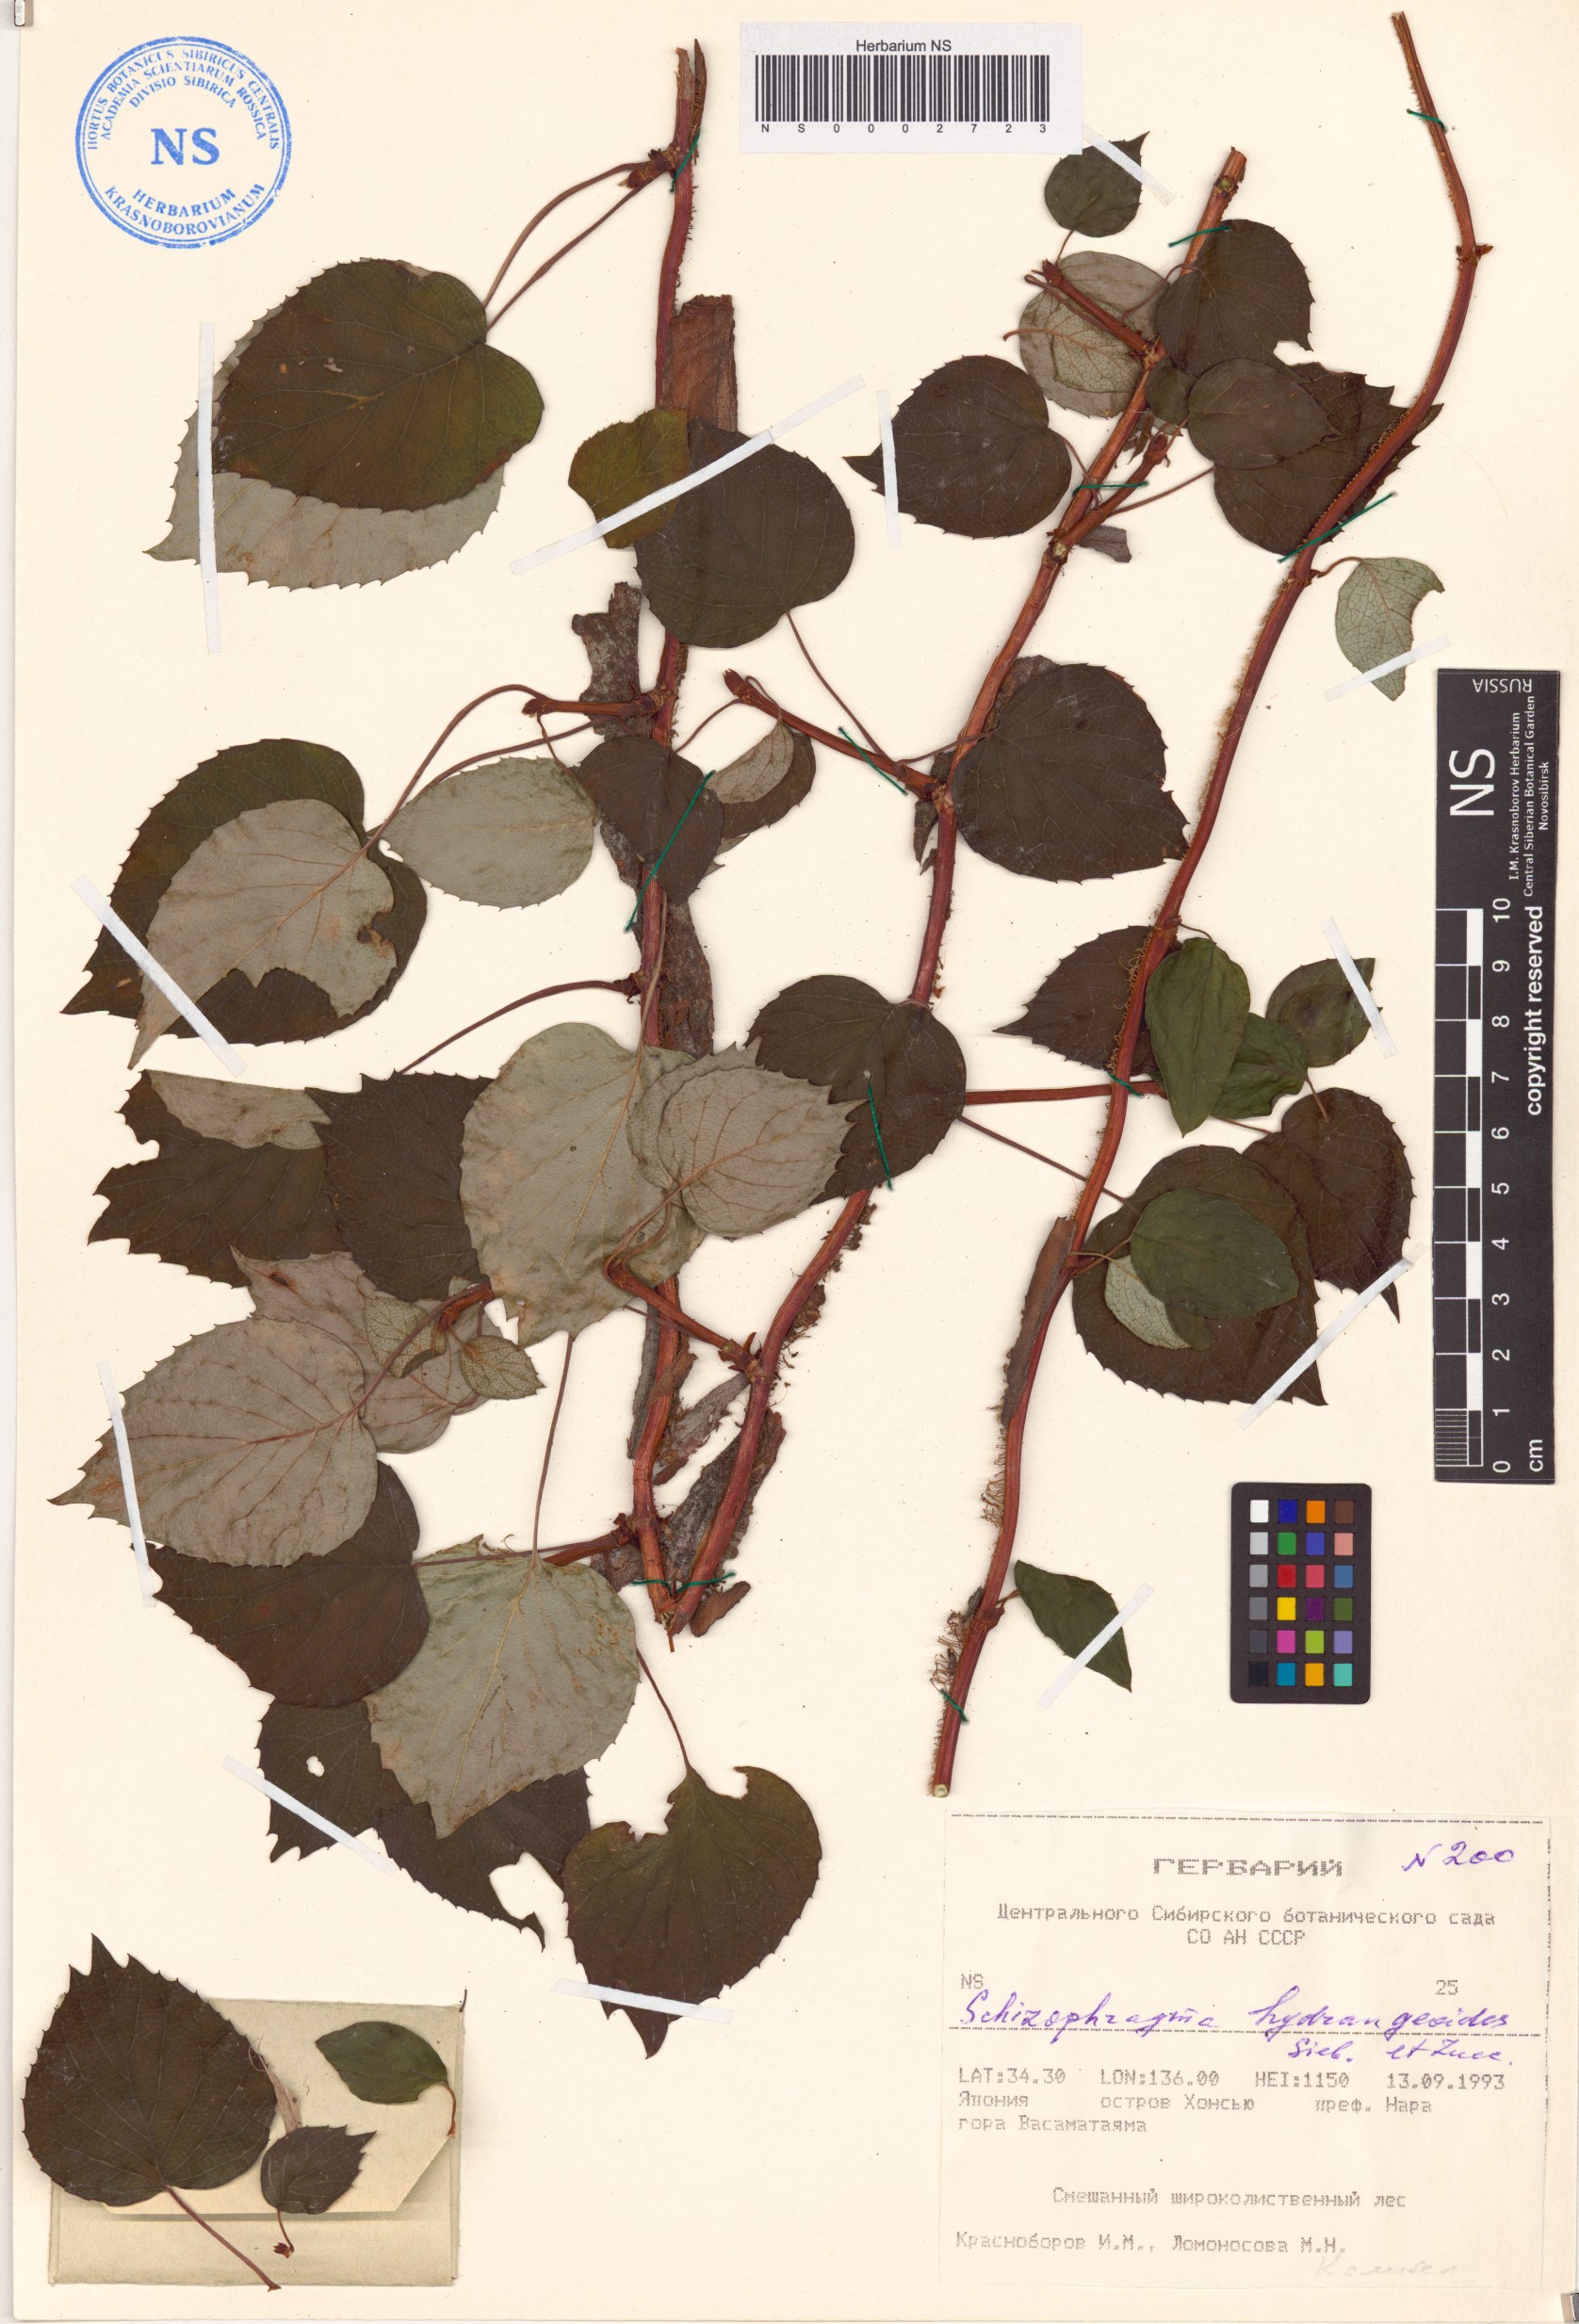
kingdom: Plantae
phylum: Tracheophyta
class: Magnoliopsida
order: Cornales
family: Hydrangeaceae
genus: Hydrangea
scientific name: Hydrangea hydrangeoides
